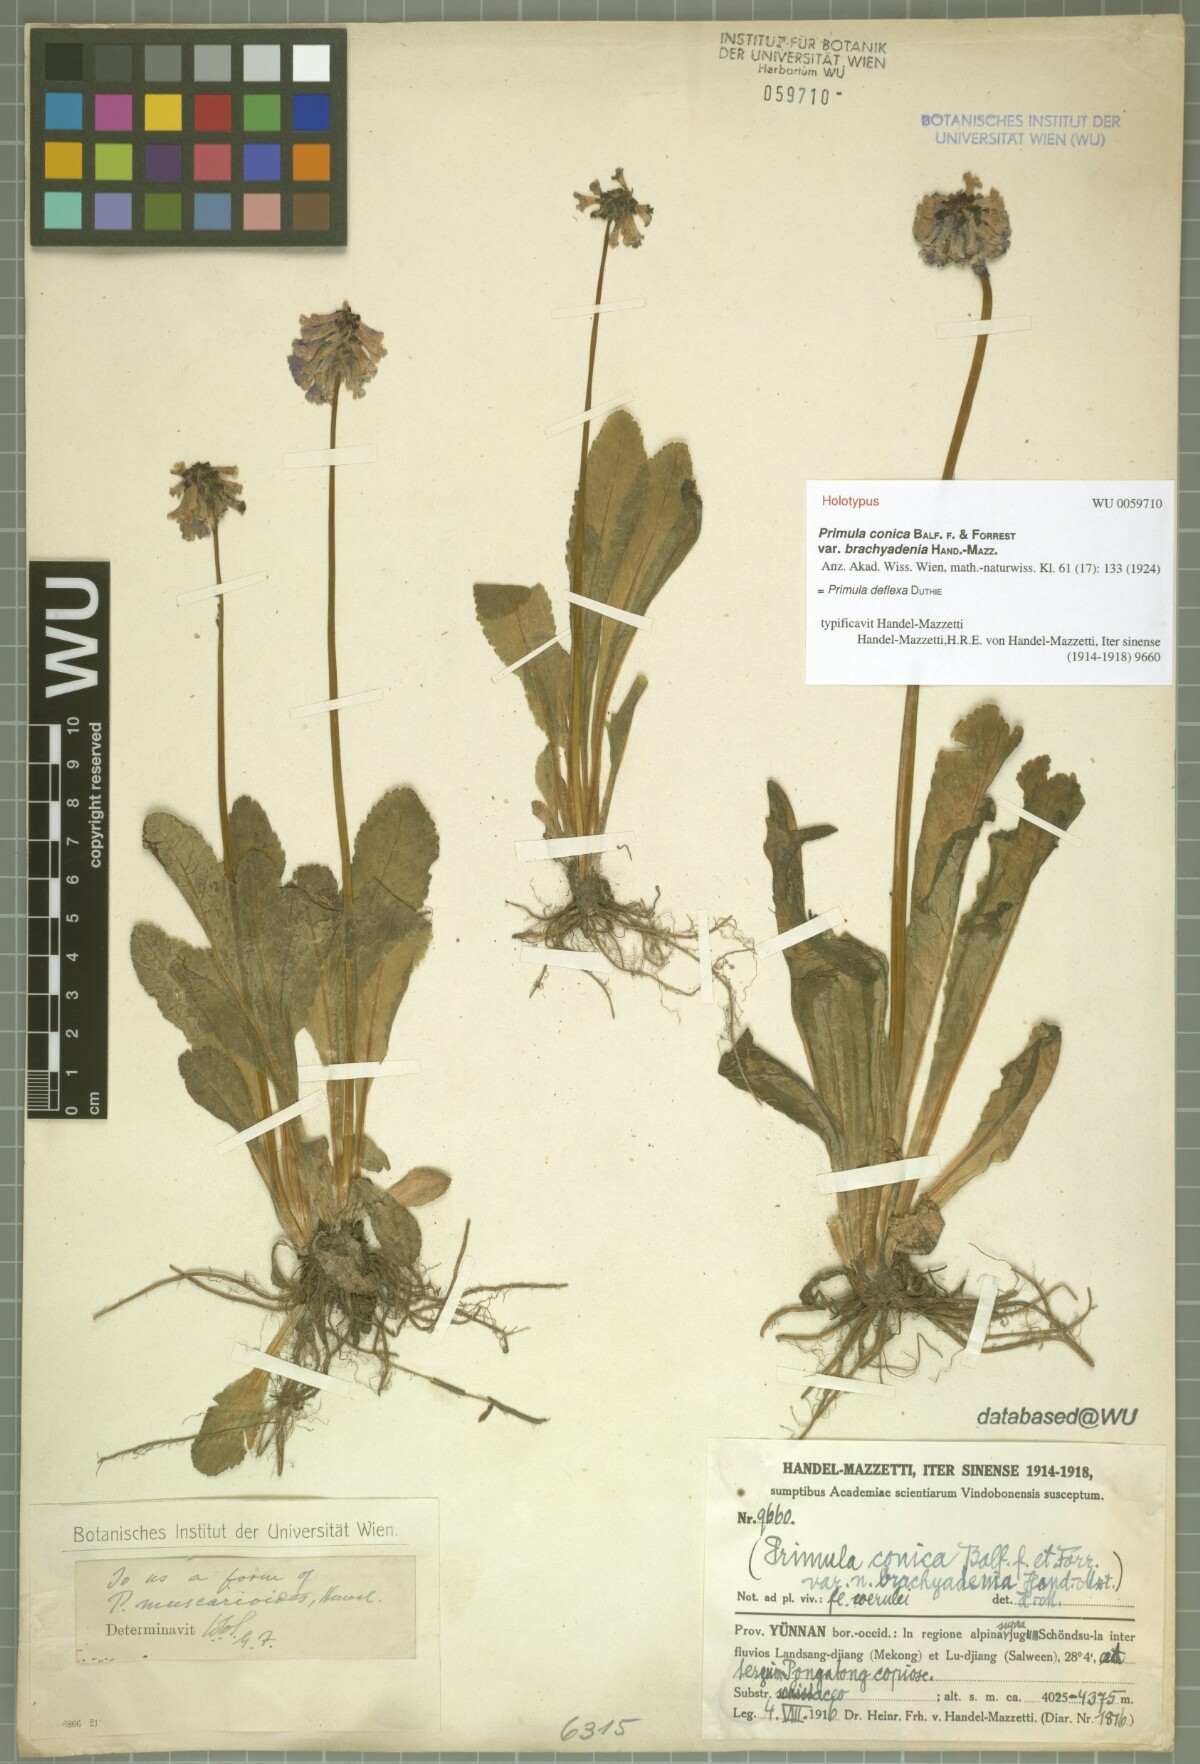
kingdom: Plantae
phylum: Tracheophyta
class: Magnoliopsida
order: Ericales
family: Primulaceae
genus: Primula
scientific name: Primula deflexa
